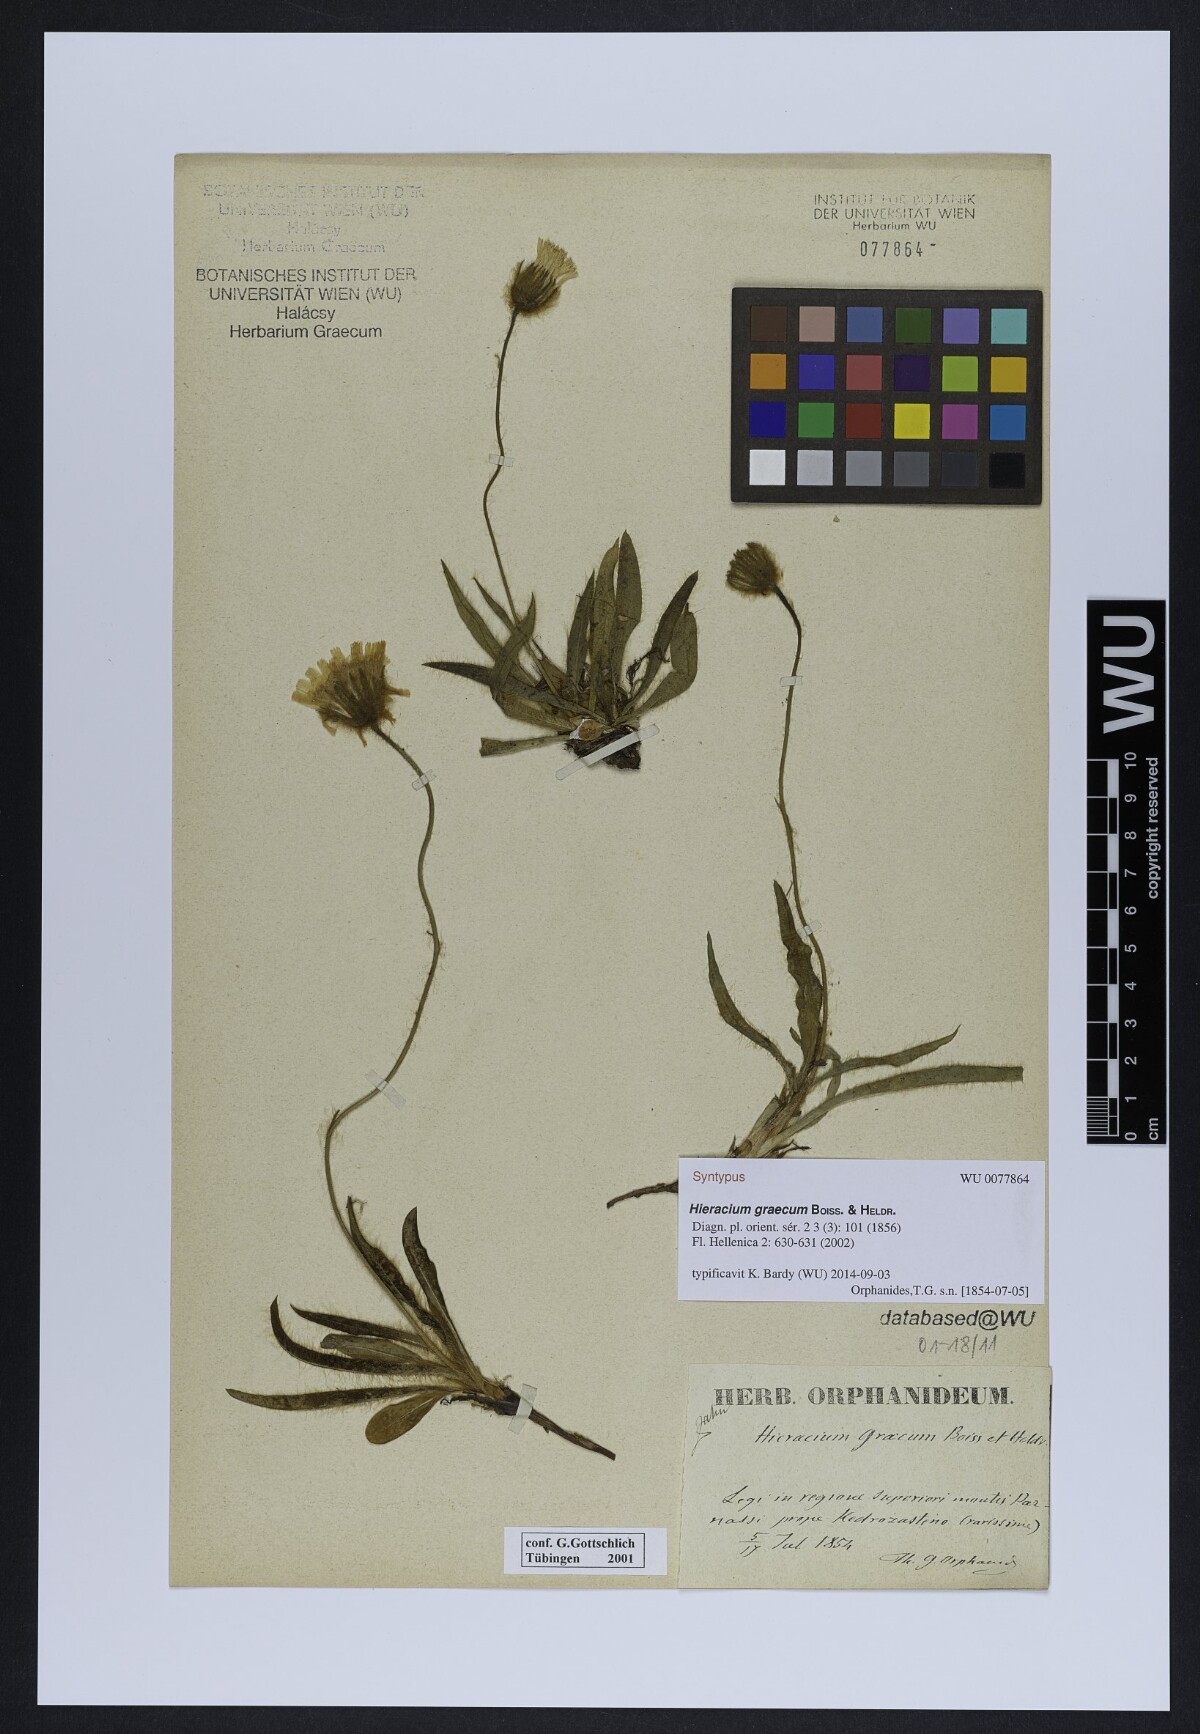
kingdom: Plantae
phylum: Tracheophyta
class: Magnoliopsida
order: Asterales
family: Asteraceae
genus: Hieracium
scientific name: Hieracium graecum
